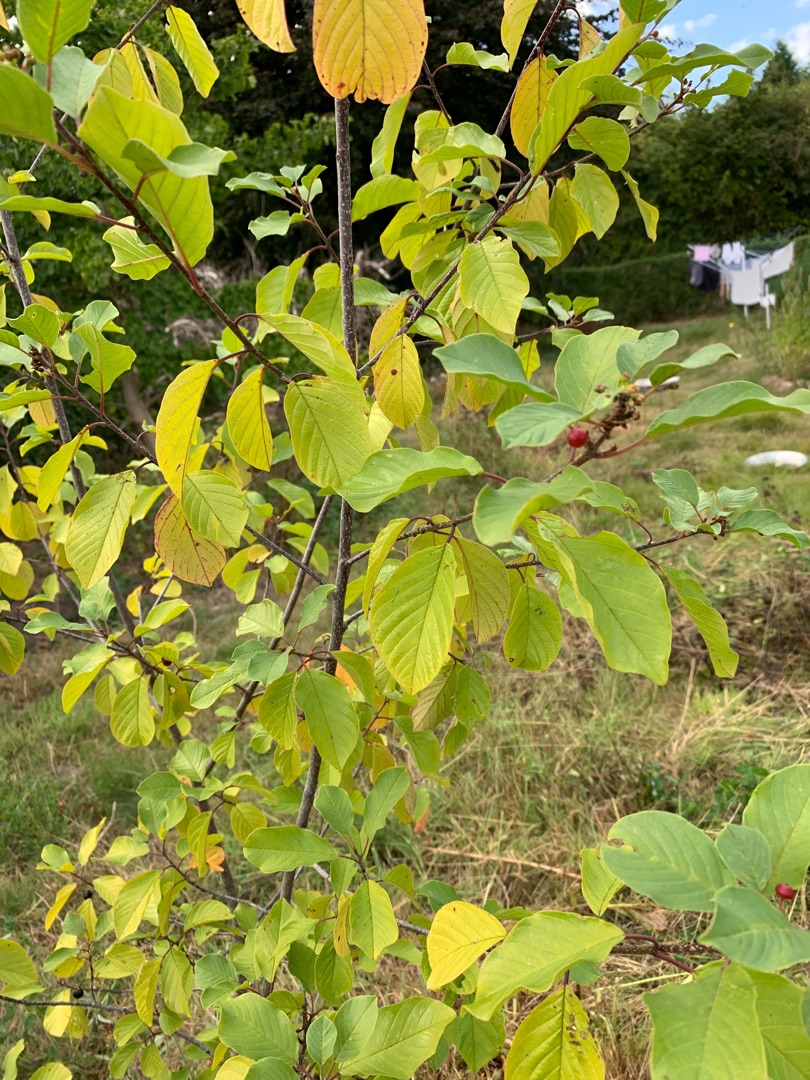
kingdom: Plantae
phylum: Tracheophyta
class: Magnoliopsida
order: Rosales
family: Rhamnaceae
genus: Frangula
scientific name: Frangula alnus
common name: Tørst
